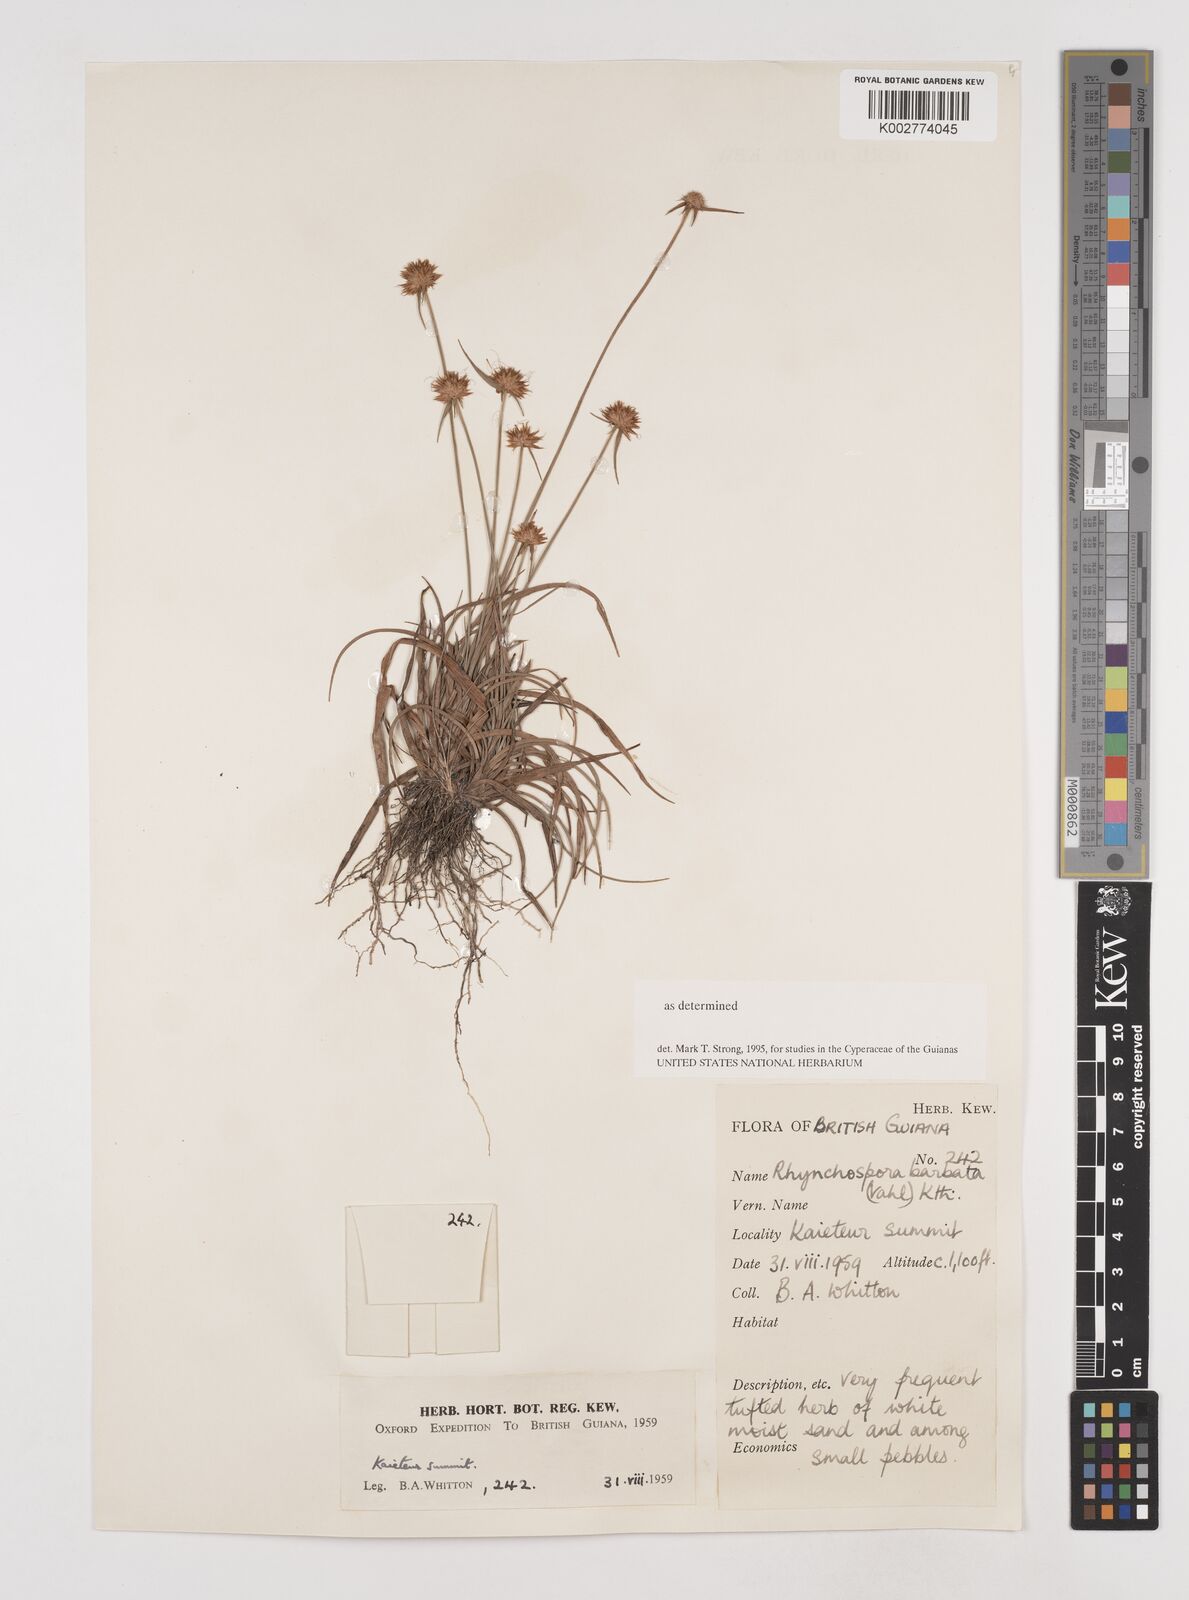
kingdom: Plantae
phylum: Tracheophyta
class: Liliopsida
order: Poales
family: Cyperaceae
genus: Rhynchospora
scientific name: Rhynchospora barbata
